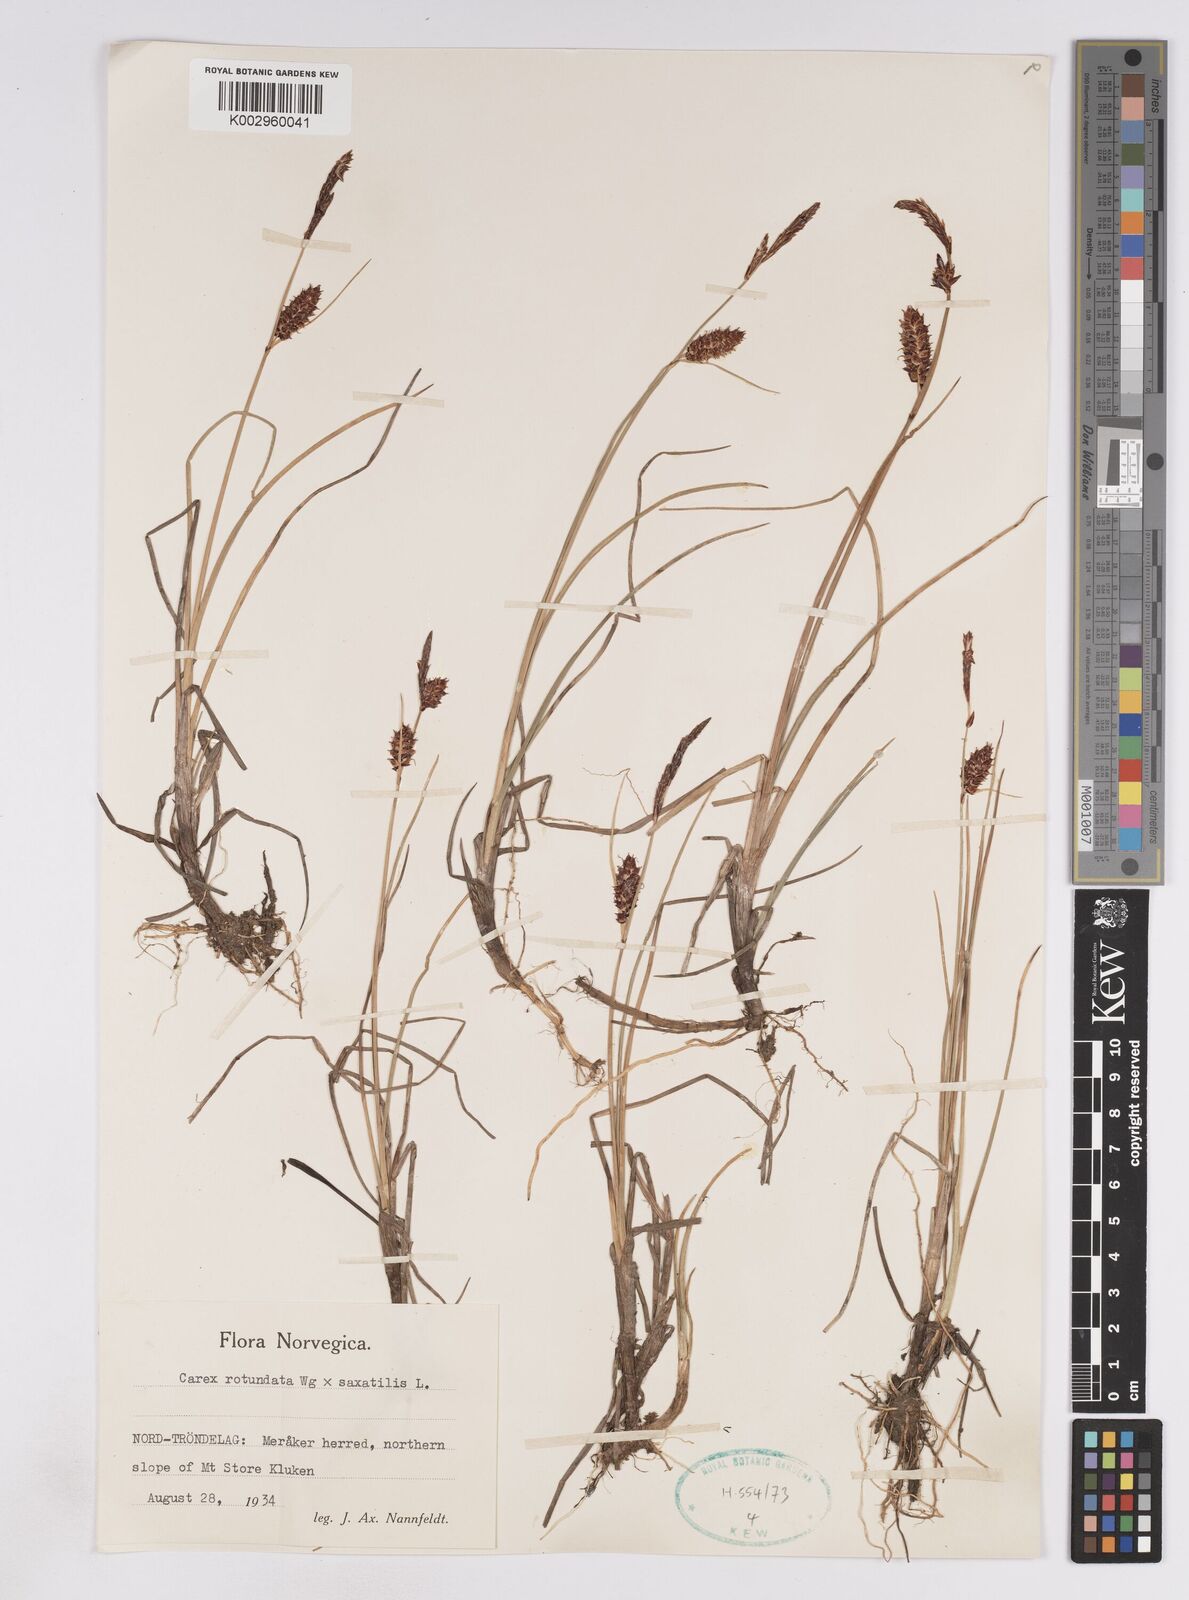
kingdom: Plantae
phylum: Tracheophyta
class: Liliopsida
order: Poales
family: Cyperaceae
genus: Carex
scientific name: Carex
